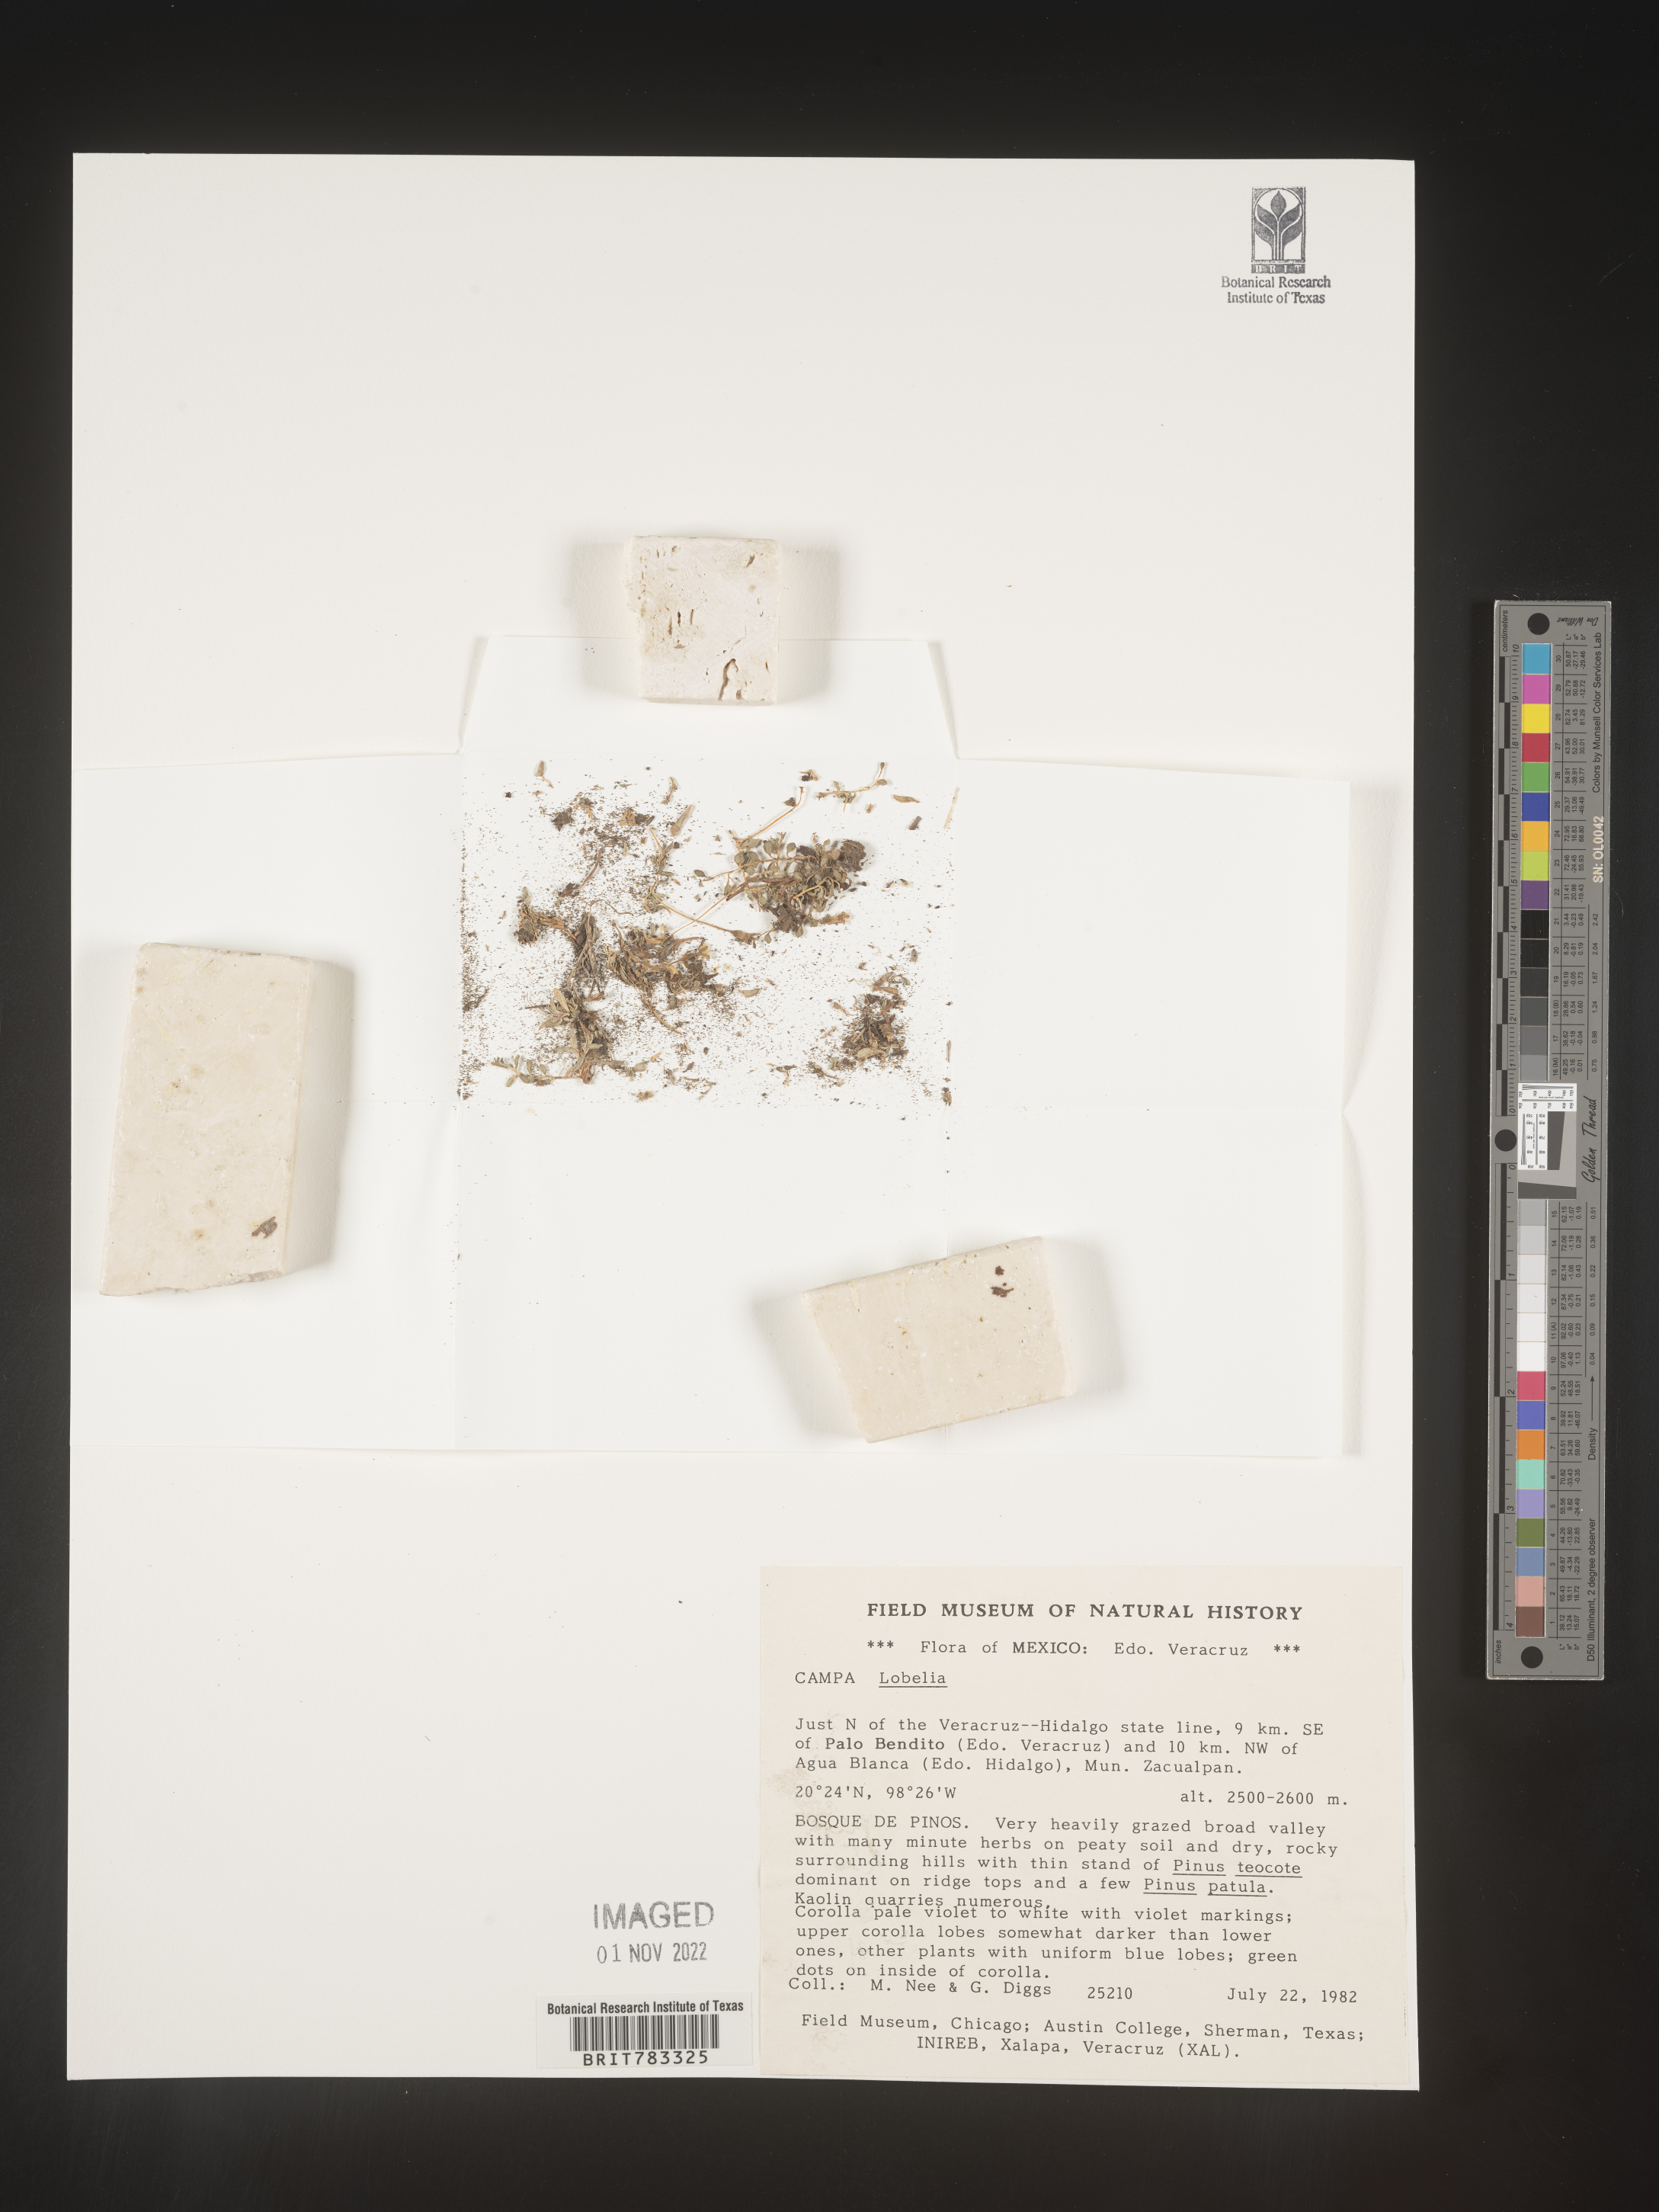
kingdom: Plantae
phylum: Tracheophyta
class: Magnoliopsida
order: Asterales
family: Campanulaceae
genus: Lobelia
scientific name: Lobelia
